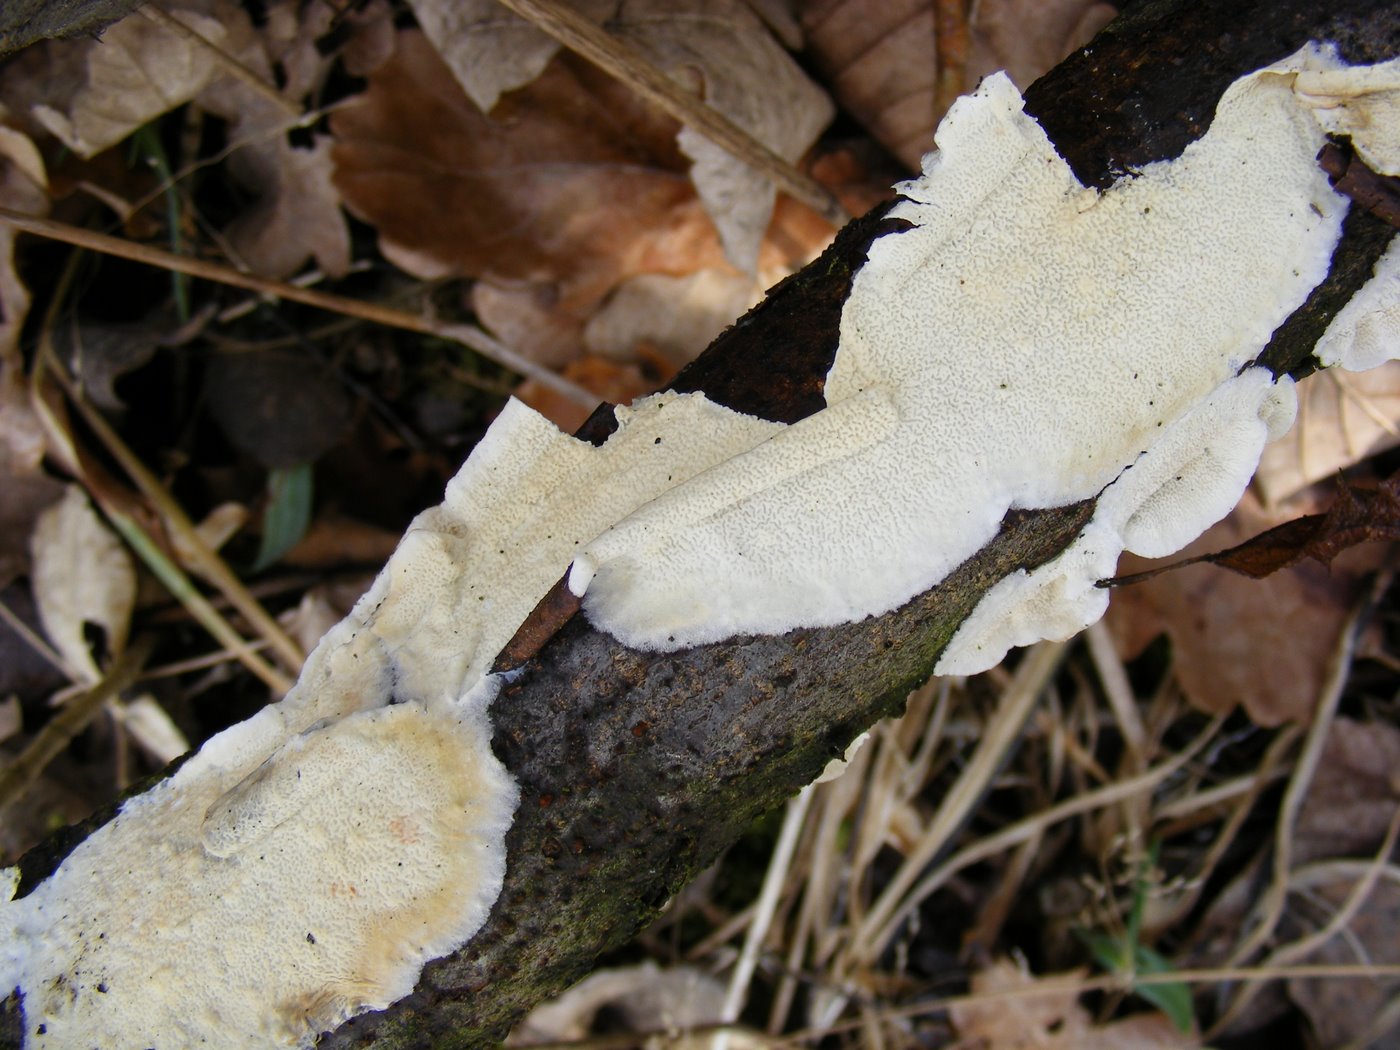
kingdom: Fungi
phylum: Basidiomycota
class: Agaricomycetes
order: Polyporales
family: Irpicaceae
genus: Byssomerulius
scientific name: Byssomerulius corium
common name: læder-åresvamp
